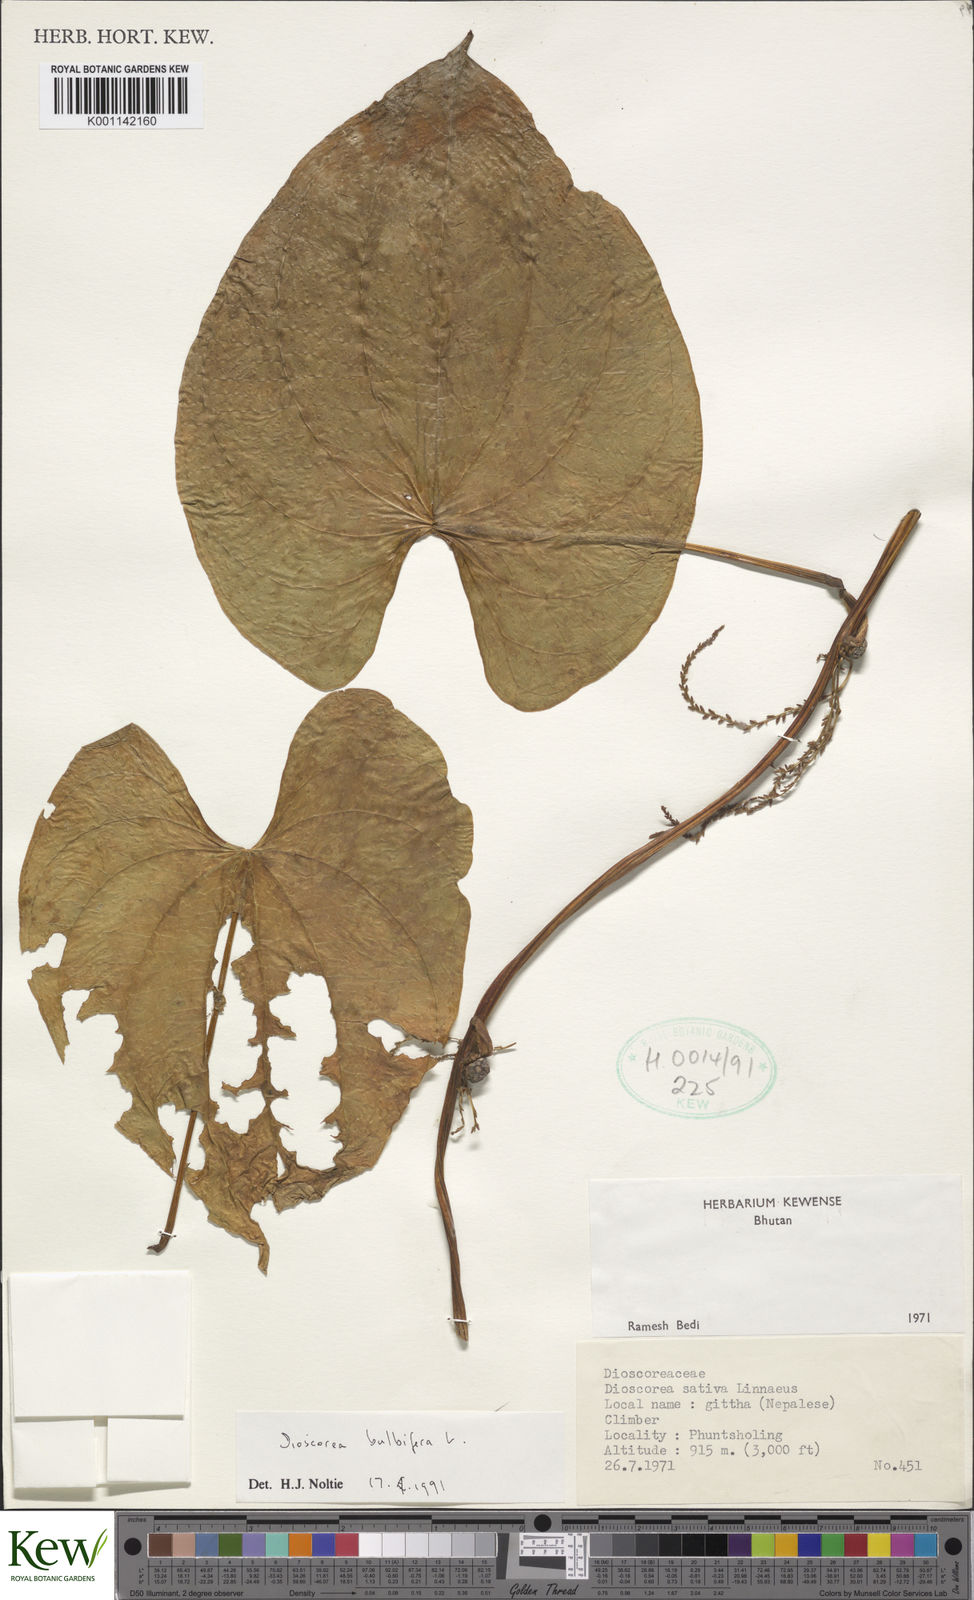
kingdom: Plantae
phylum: Tracheophyta
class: Liliopsida
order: Dioscoreales
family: Dioscoreaceae
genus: Dioscorea
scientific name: Dioscorea bulbifera
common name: Air yam
